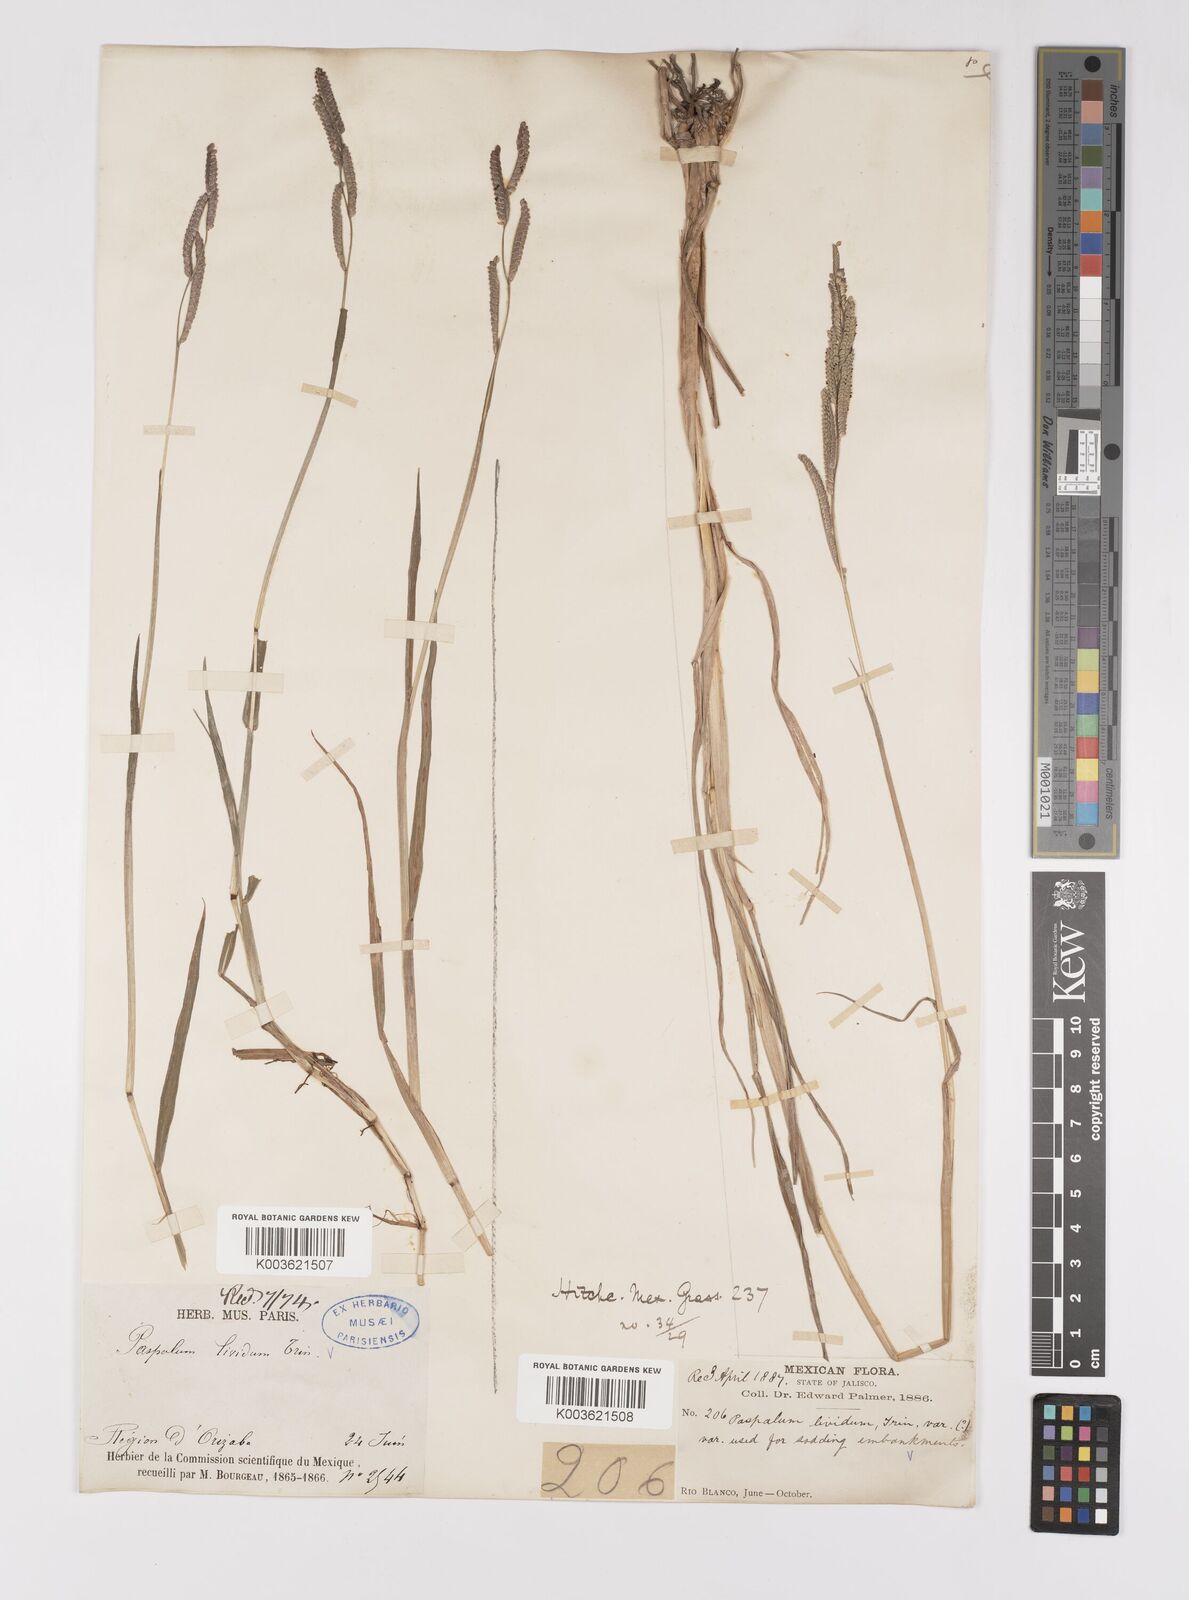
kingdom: Plantae
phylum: Tracheophyta
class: Liliopsida
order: Poales
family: Poaceae
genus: Paspalum
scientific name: Paspalum denticulatum
